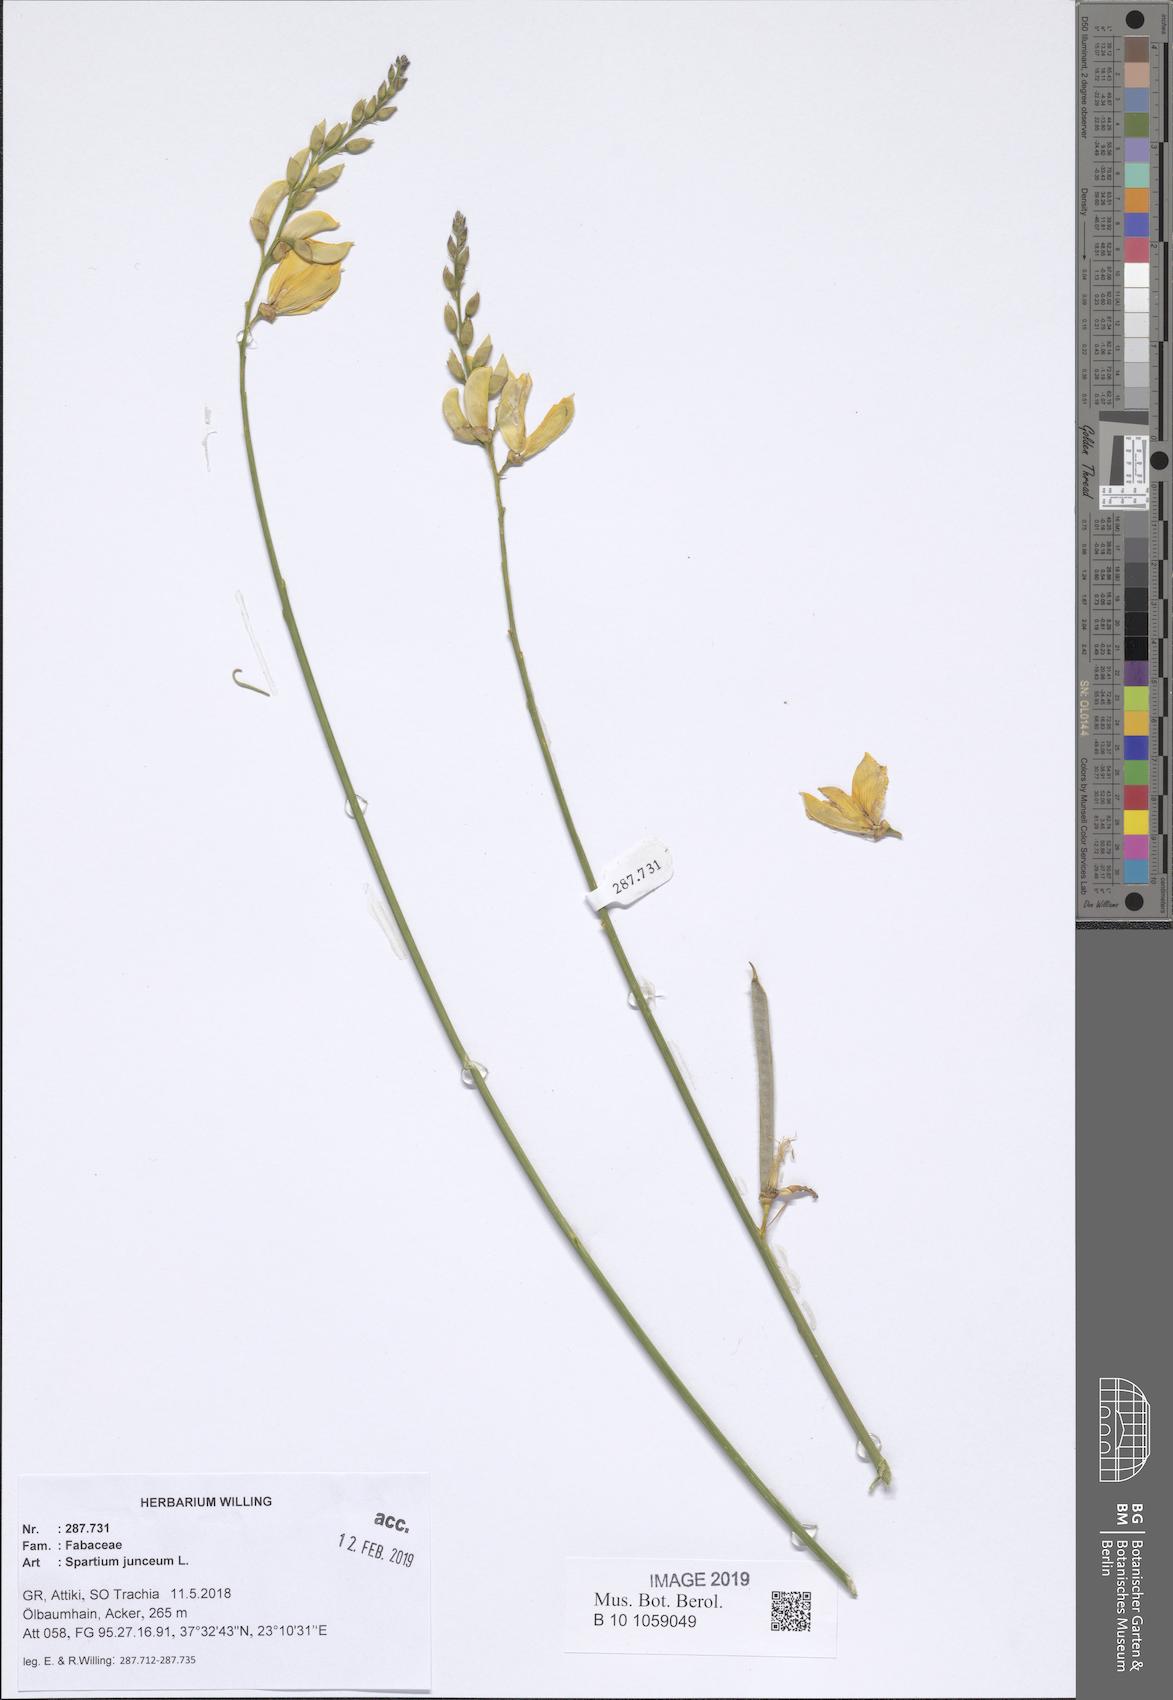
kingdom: Plantae
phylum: Tracheophyta
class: Magnoliopsida
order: Fabales
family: Fabaceae
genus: Spartium
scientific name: Spartium junceum
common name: Spanish broom
